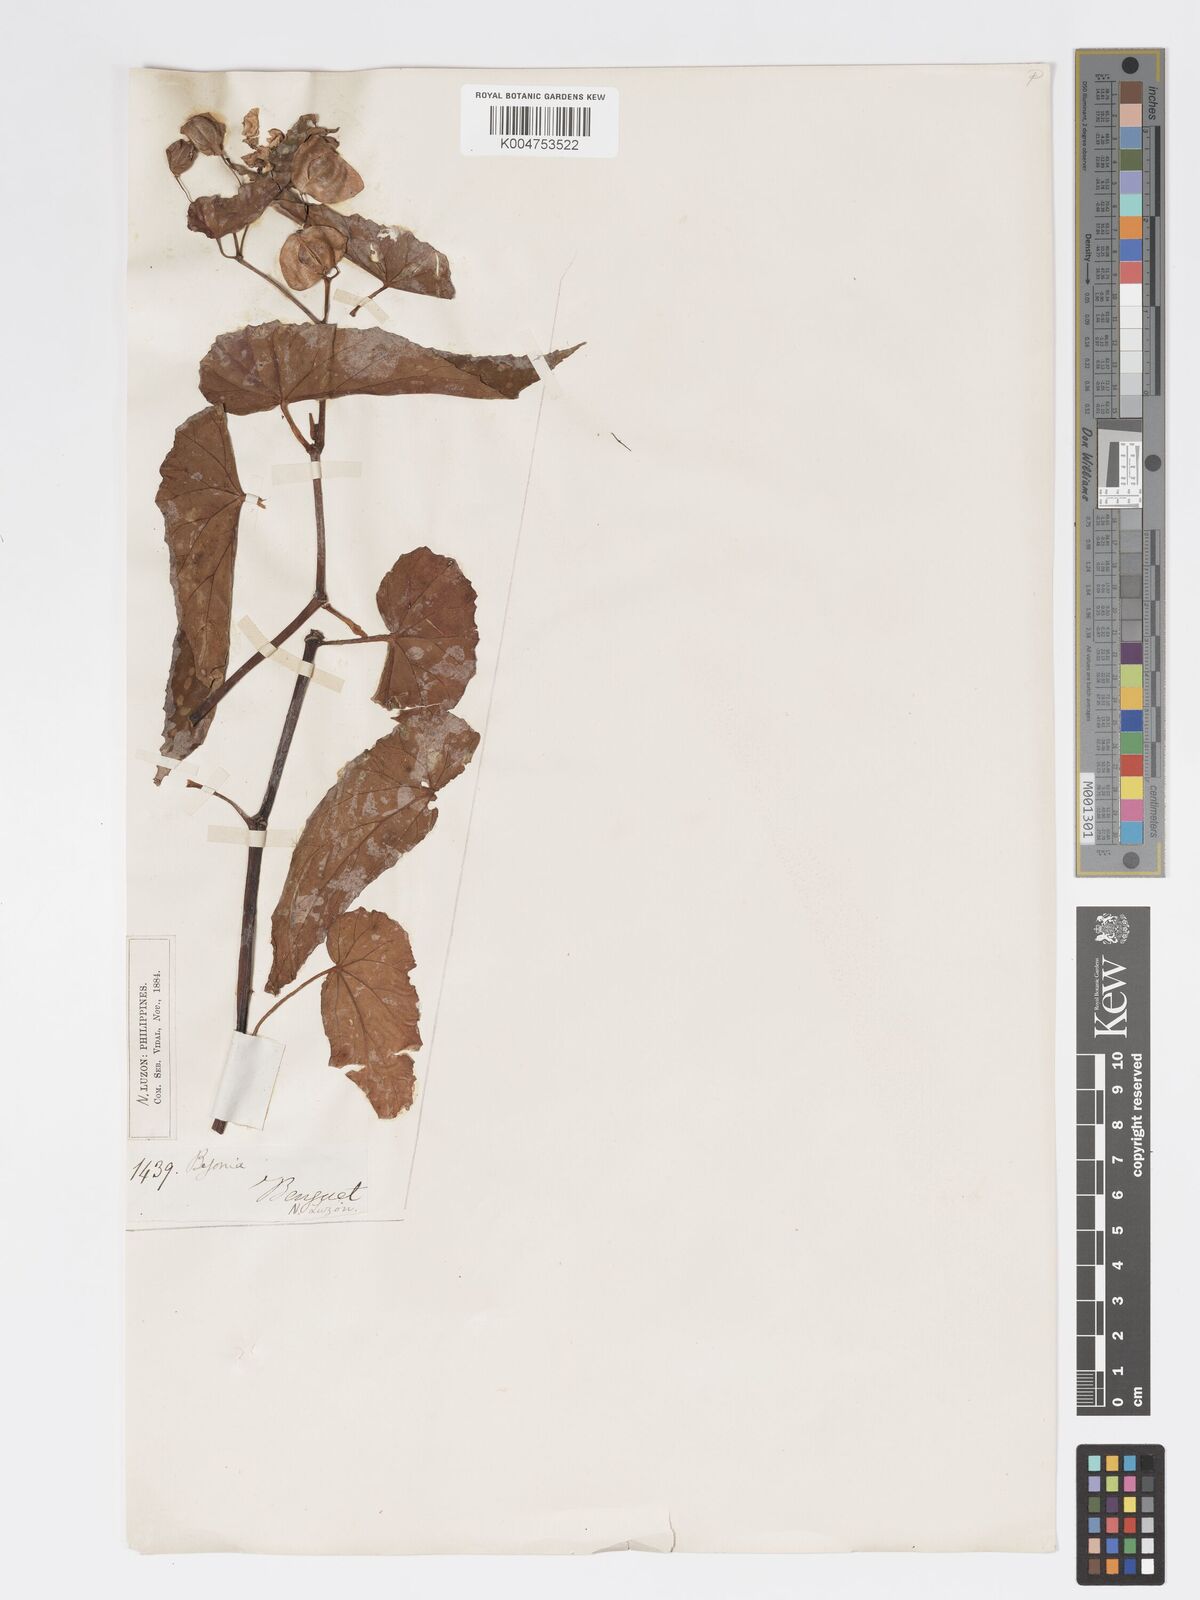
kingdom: Plantae
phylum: Tracheophyta
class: Magnoliopsida
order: Cucurbitales
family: Begoniaceae
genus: Begonia
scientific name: Begonia
